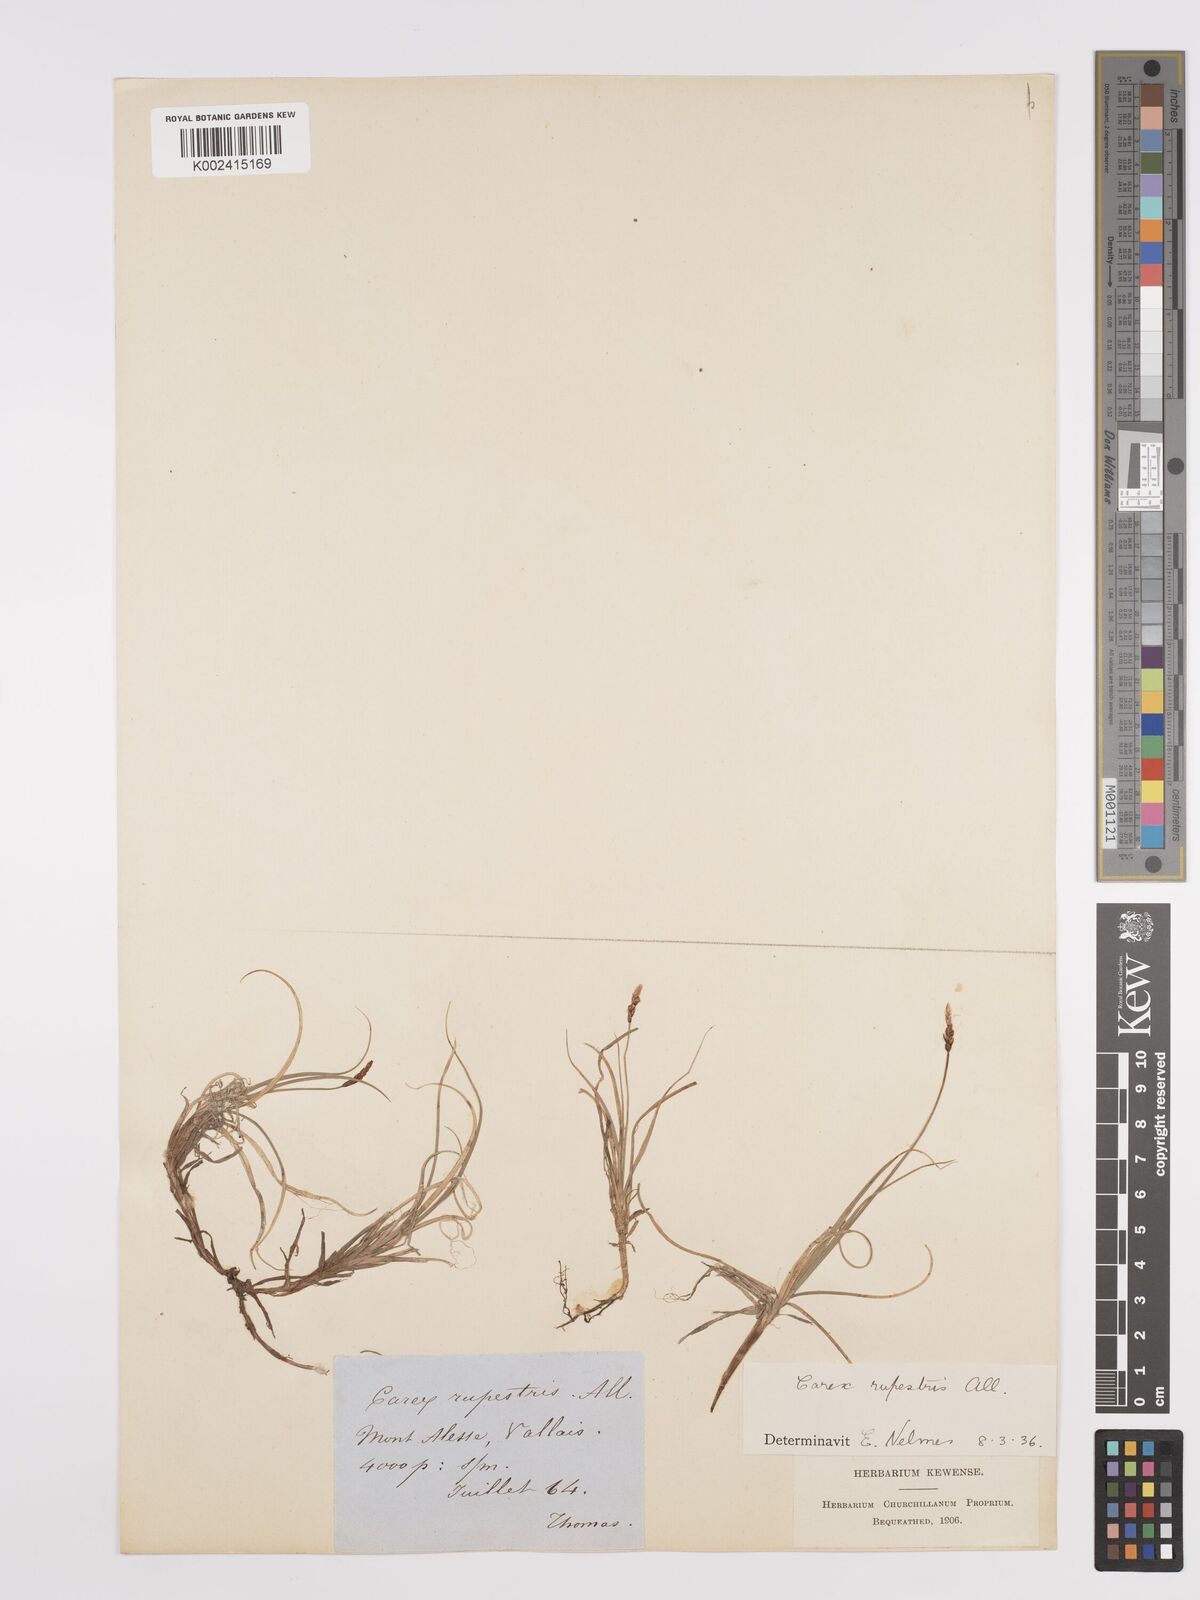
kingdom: Plantae
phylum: Tracheophyta
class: Liliopsida
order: Poales
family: Cyperaceae
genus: Carex
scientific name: Carex rupestris
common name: Rock sedge
